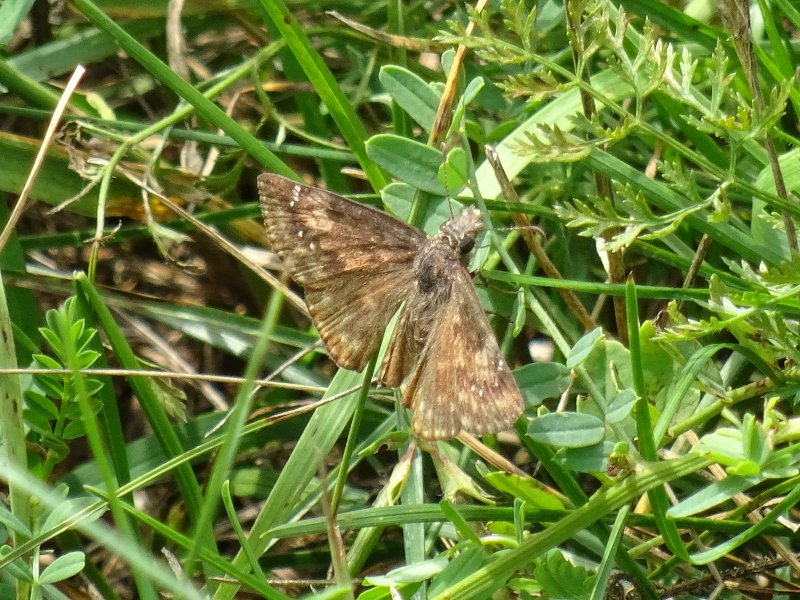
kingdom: Animalia
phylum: Arthropoda
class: Insecta
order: Lepidoptera
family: Hesperiidae
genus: Gesta
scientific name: Gesta
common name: Wild Indigo Duskywing
